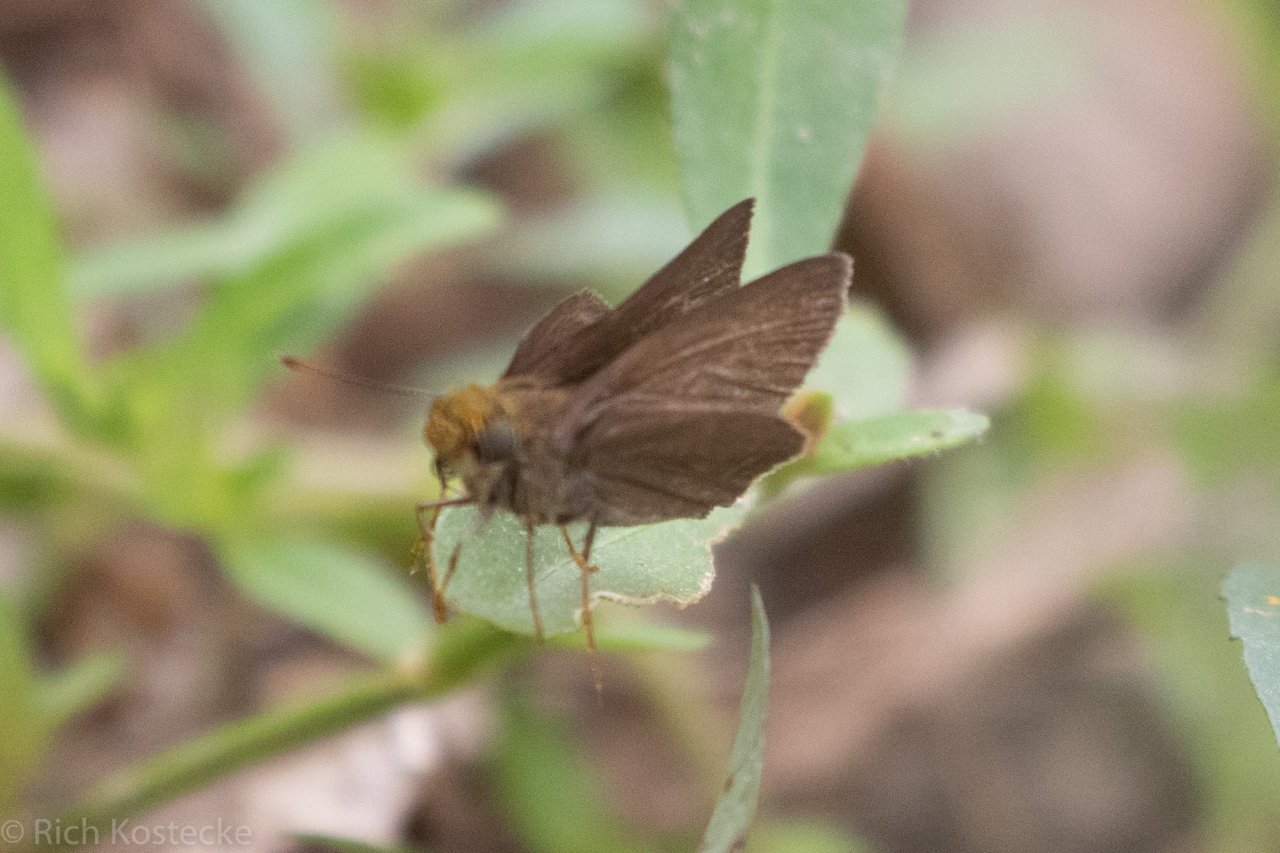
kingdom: Animalia
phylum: Arthropoda
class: Insecta
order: Lepidoptera
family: Hesperiidae
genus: Euphyes
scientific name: Euphyes vestris
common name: Dun Skipper
